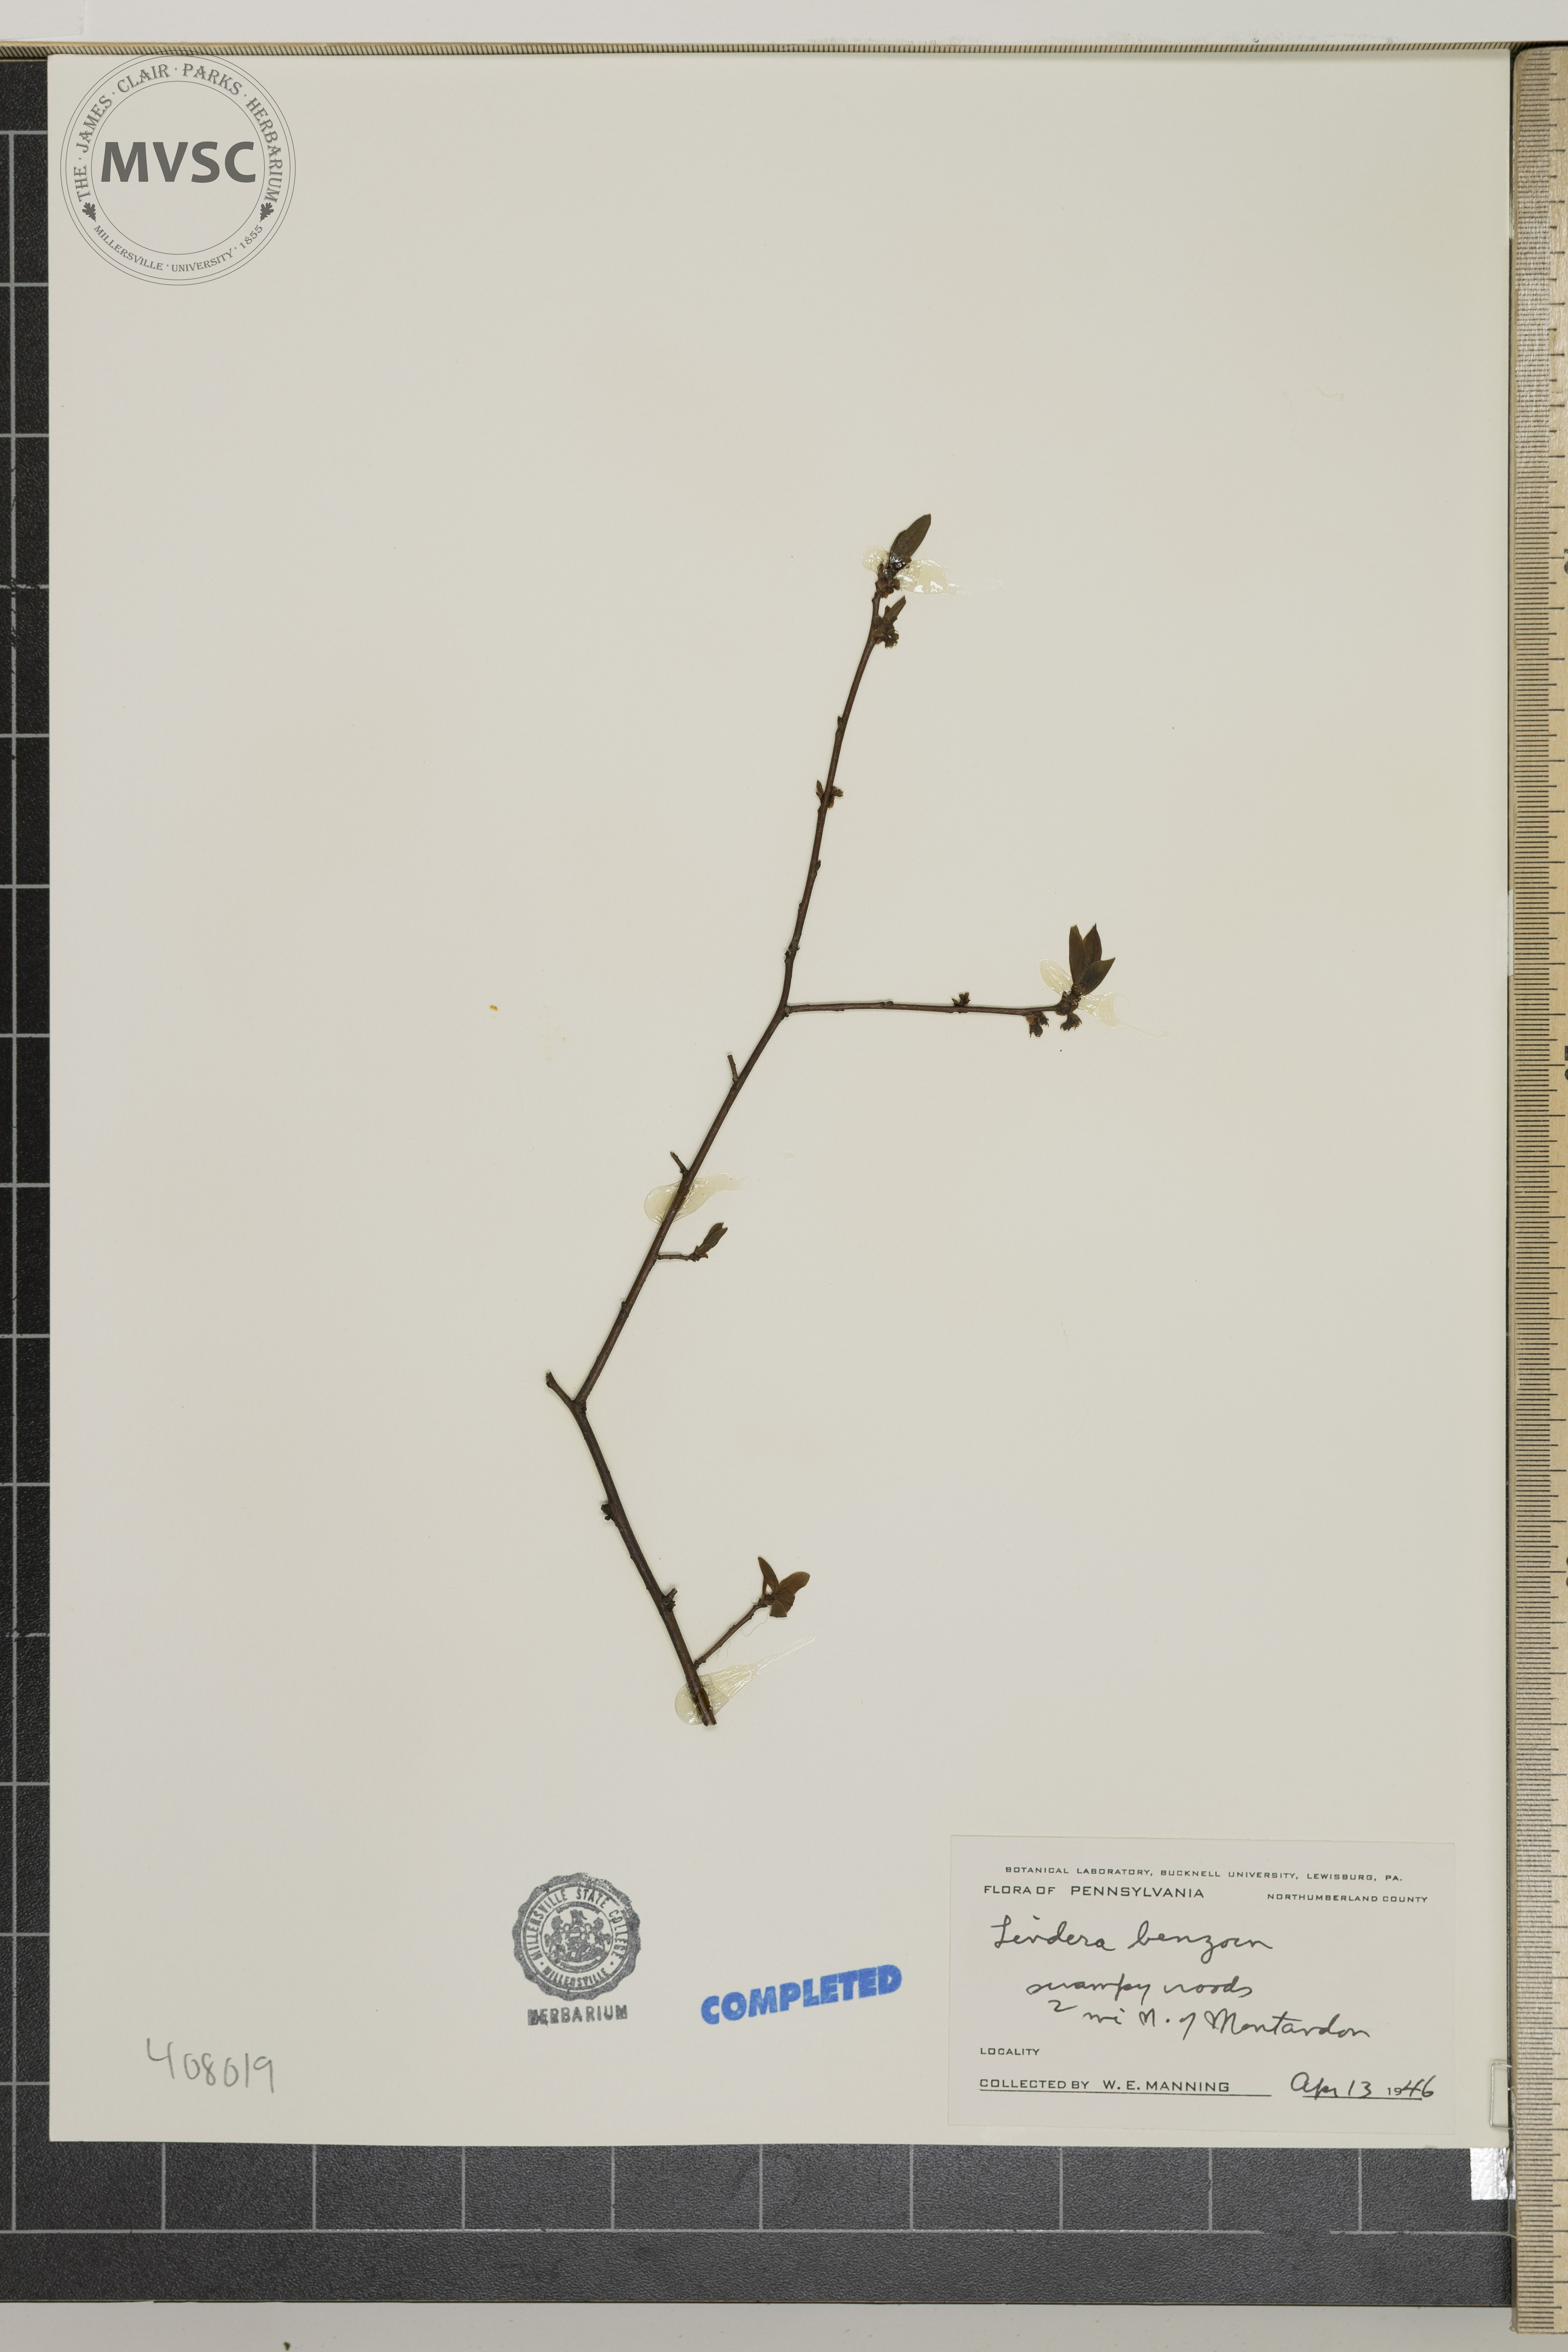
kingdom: Plantae
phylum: Tracheophyta
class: Magnoliopsida
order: Laurales
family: Lauraceae
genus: Lindera
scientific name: Lindera benzoin
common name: Spicebush
